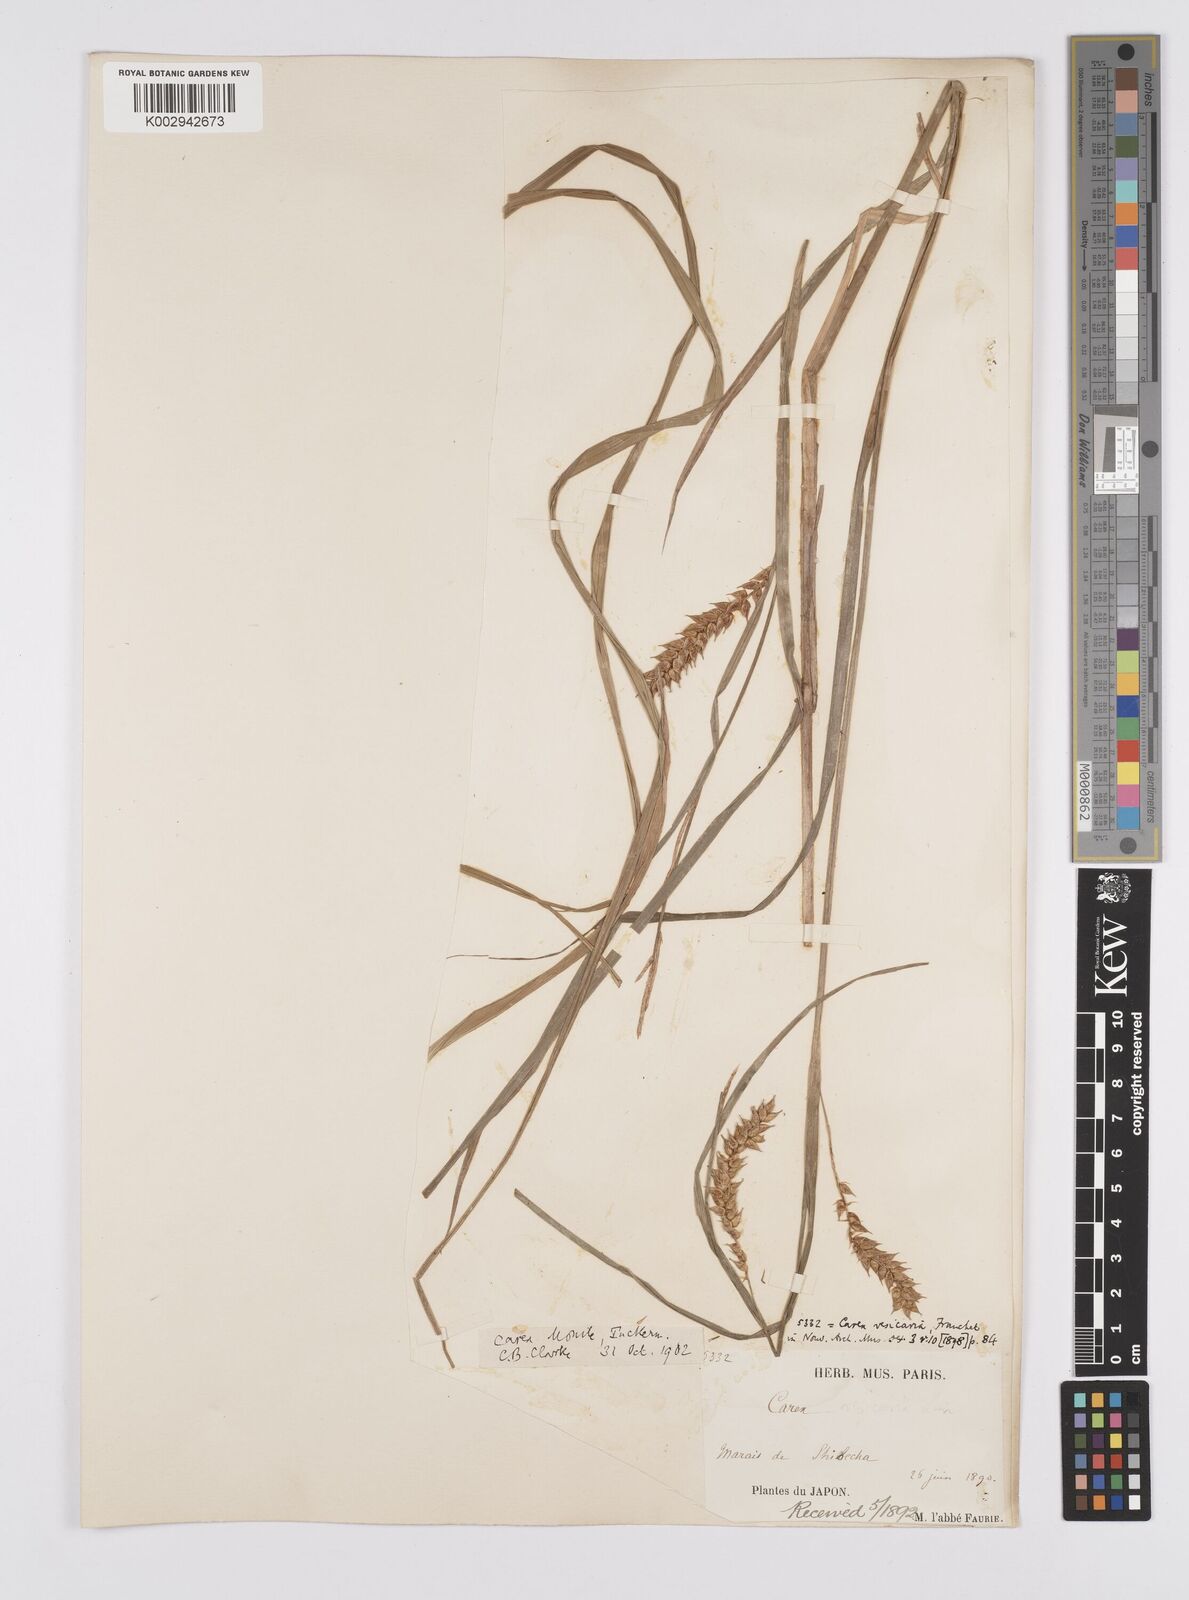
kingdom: Plantae
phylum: Tracheophyta
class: Liliopsida
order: Poales
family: Cyperaceae
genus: Carex
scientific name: Carex vesicaria
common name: Bladder-sedge
